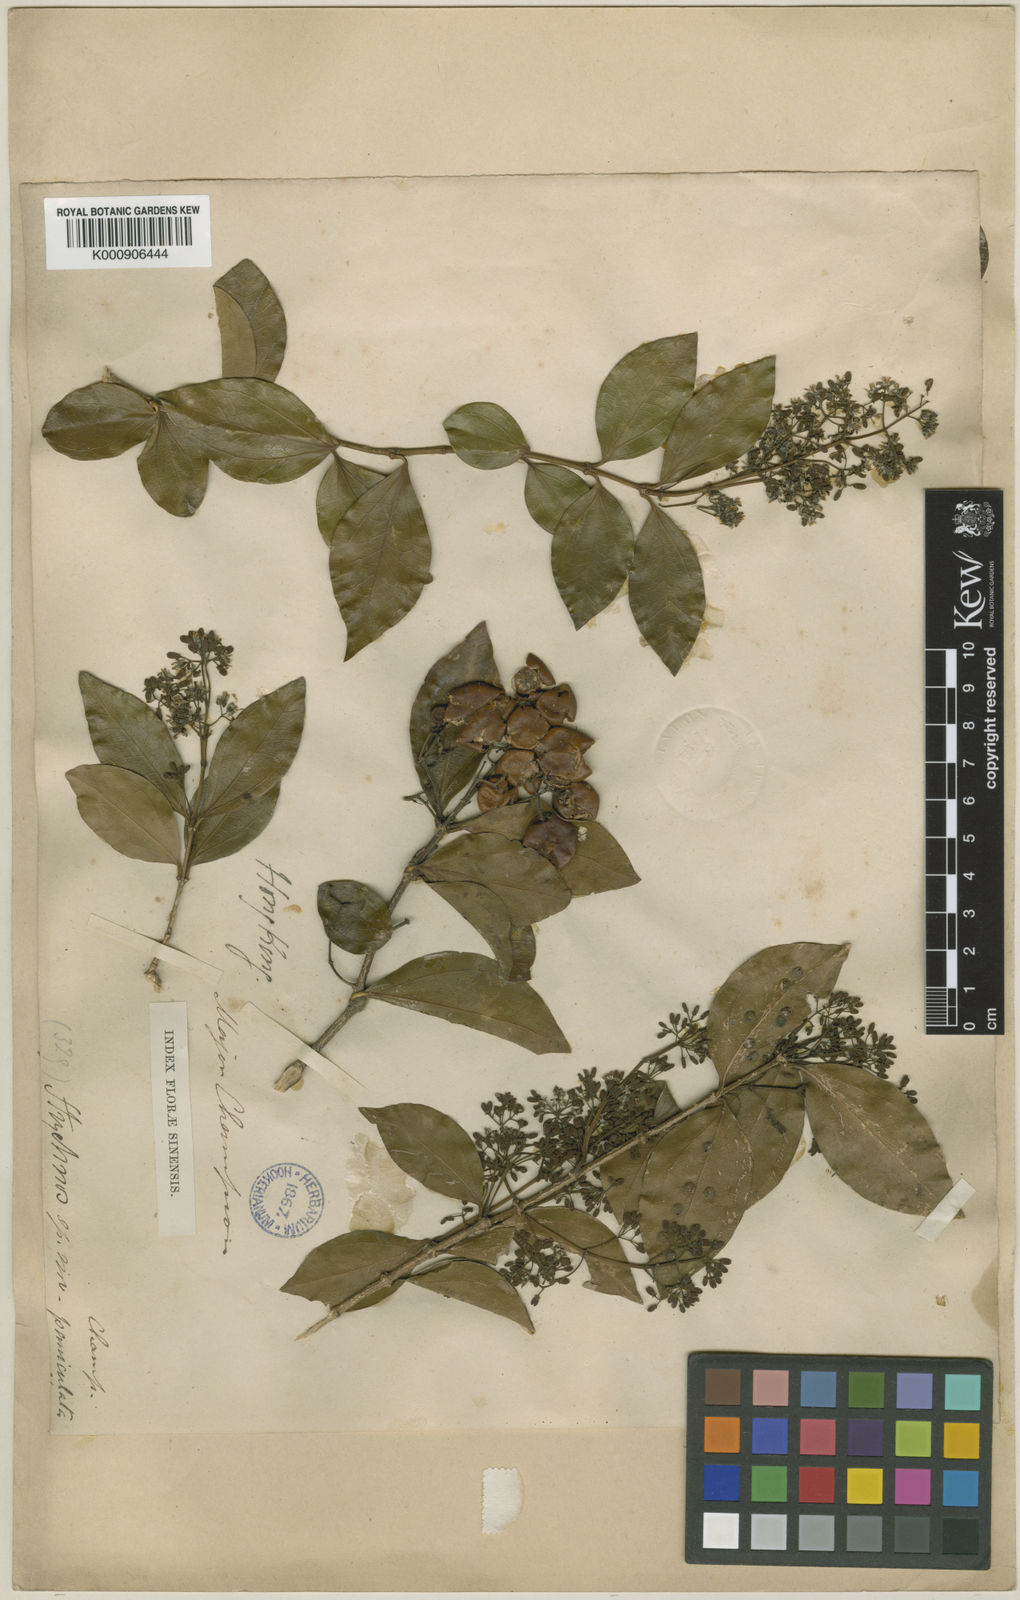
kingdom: Plantae
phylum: Tracheophyta
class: Magnoliopsida
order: Gentianales
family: Loganiaceae
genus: Strychnos
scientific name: Strychnos umbellata
